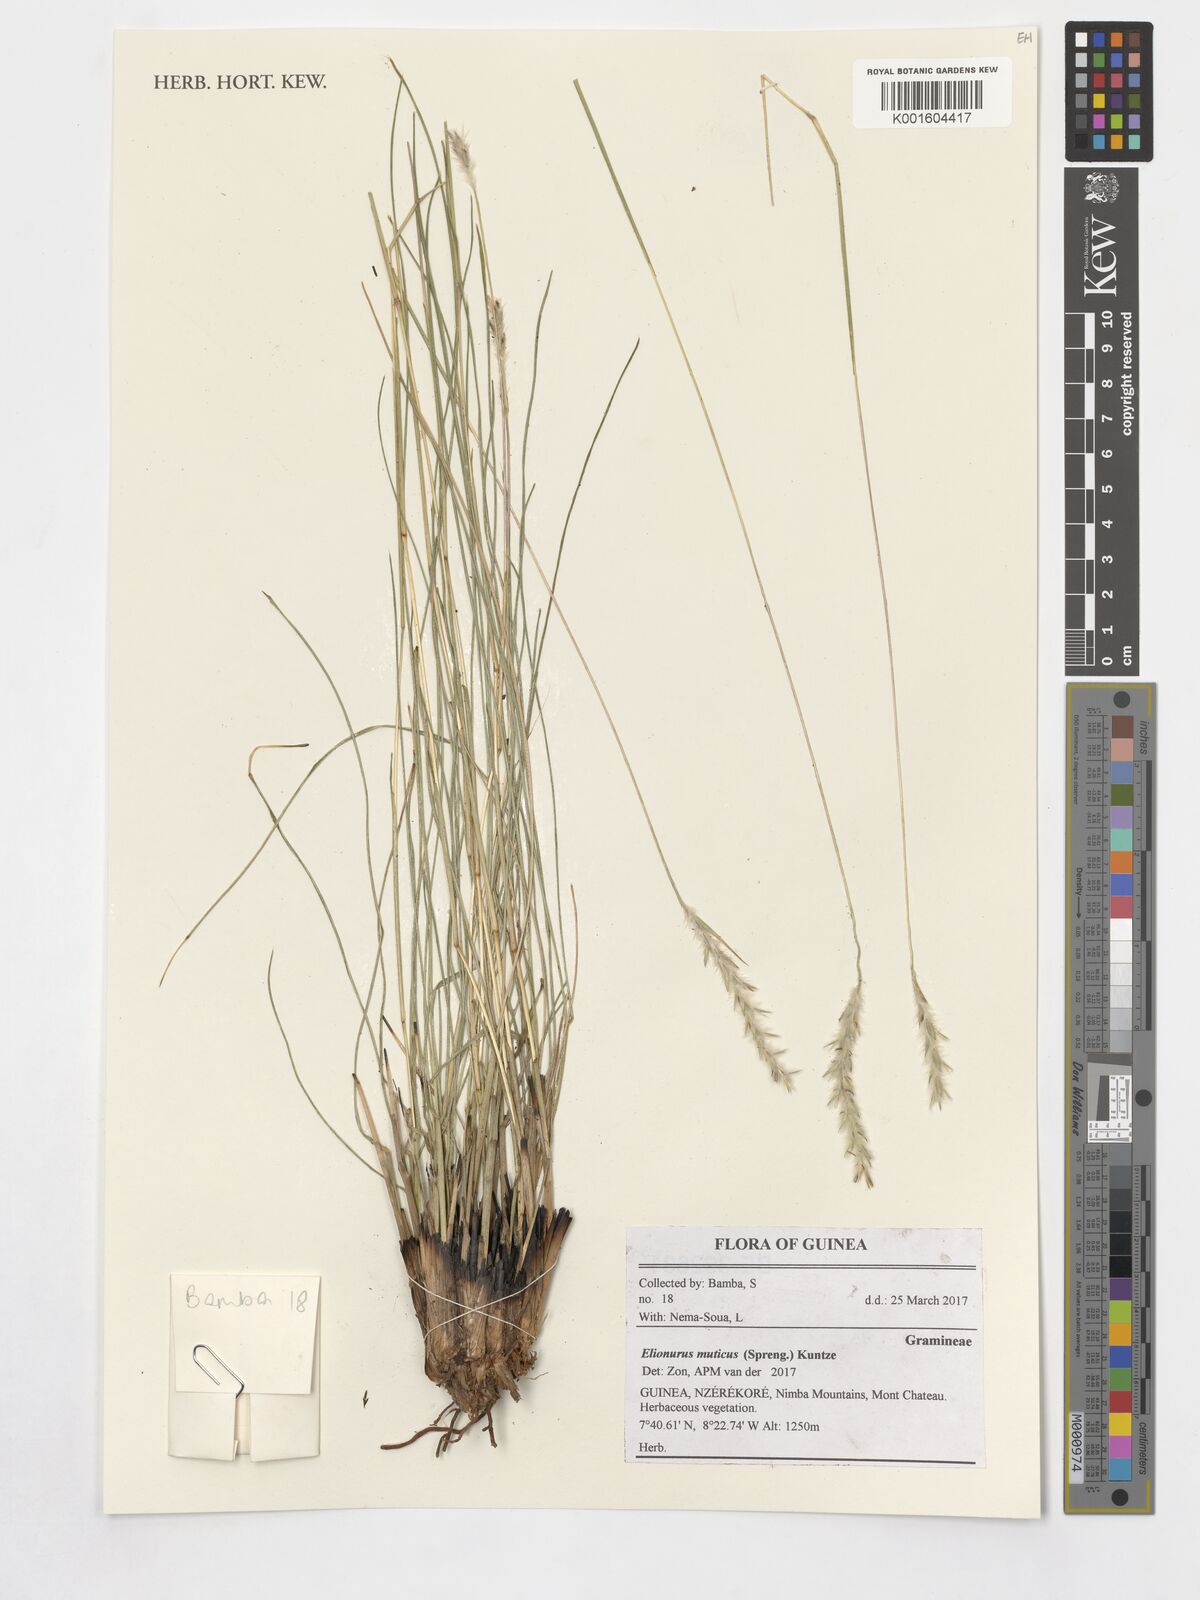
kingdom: Plantae
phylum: Tracheophyta
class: Liliopsida
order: Poales
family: Poaceae
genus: Elionurus
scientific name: Elionurus muticus
